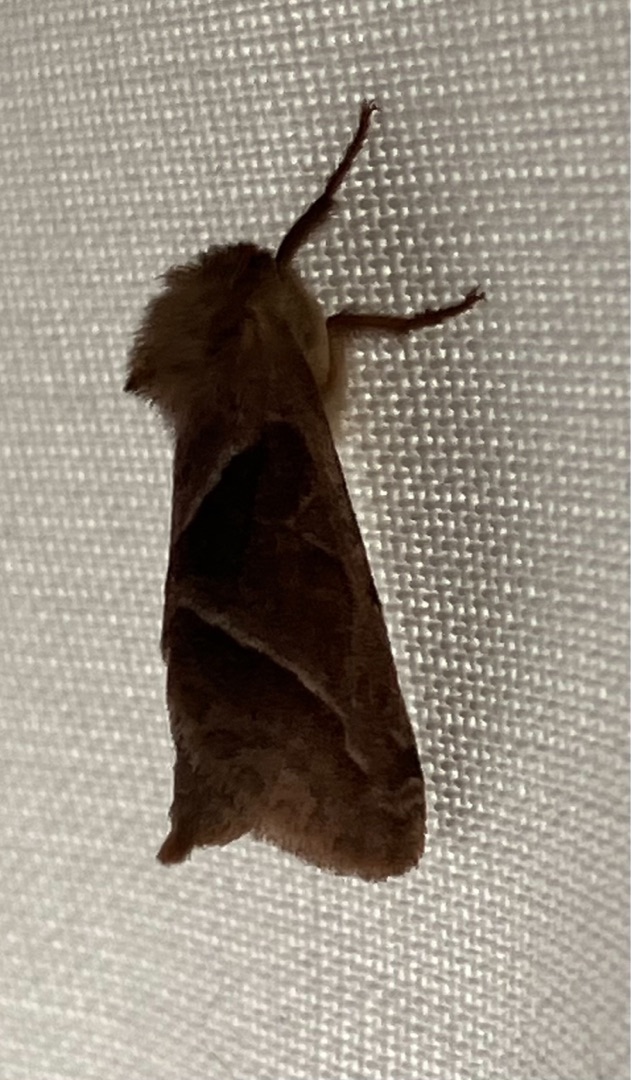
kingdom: Animalia
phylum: Arthropoda
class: Insecta
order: Lepidoptera
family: Hepialidae
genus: Triodia
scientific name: Triodia sylvina
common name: Skræpperodæder
